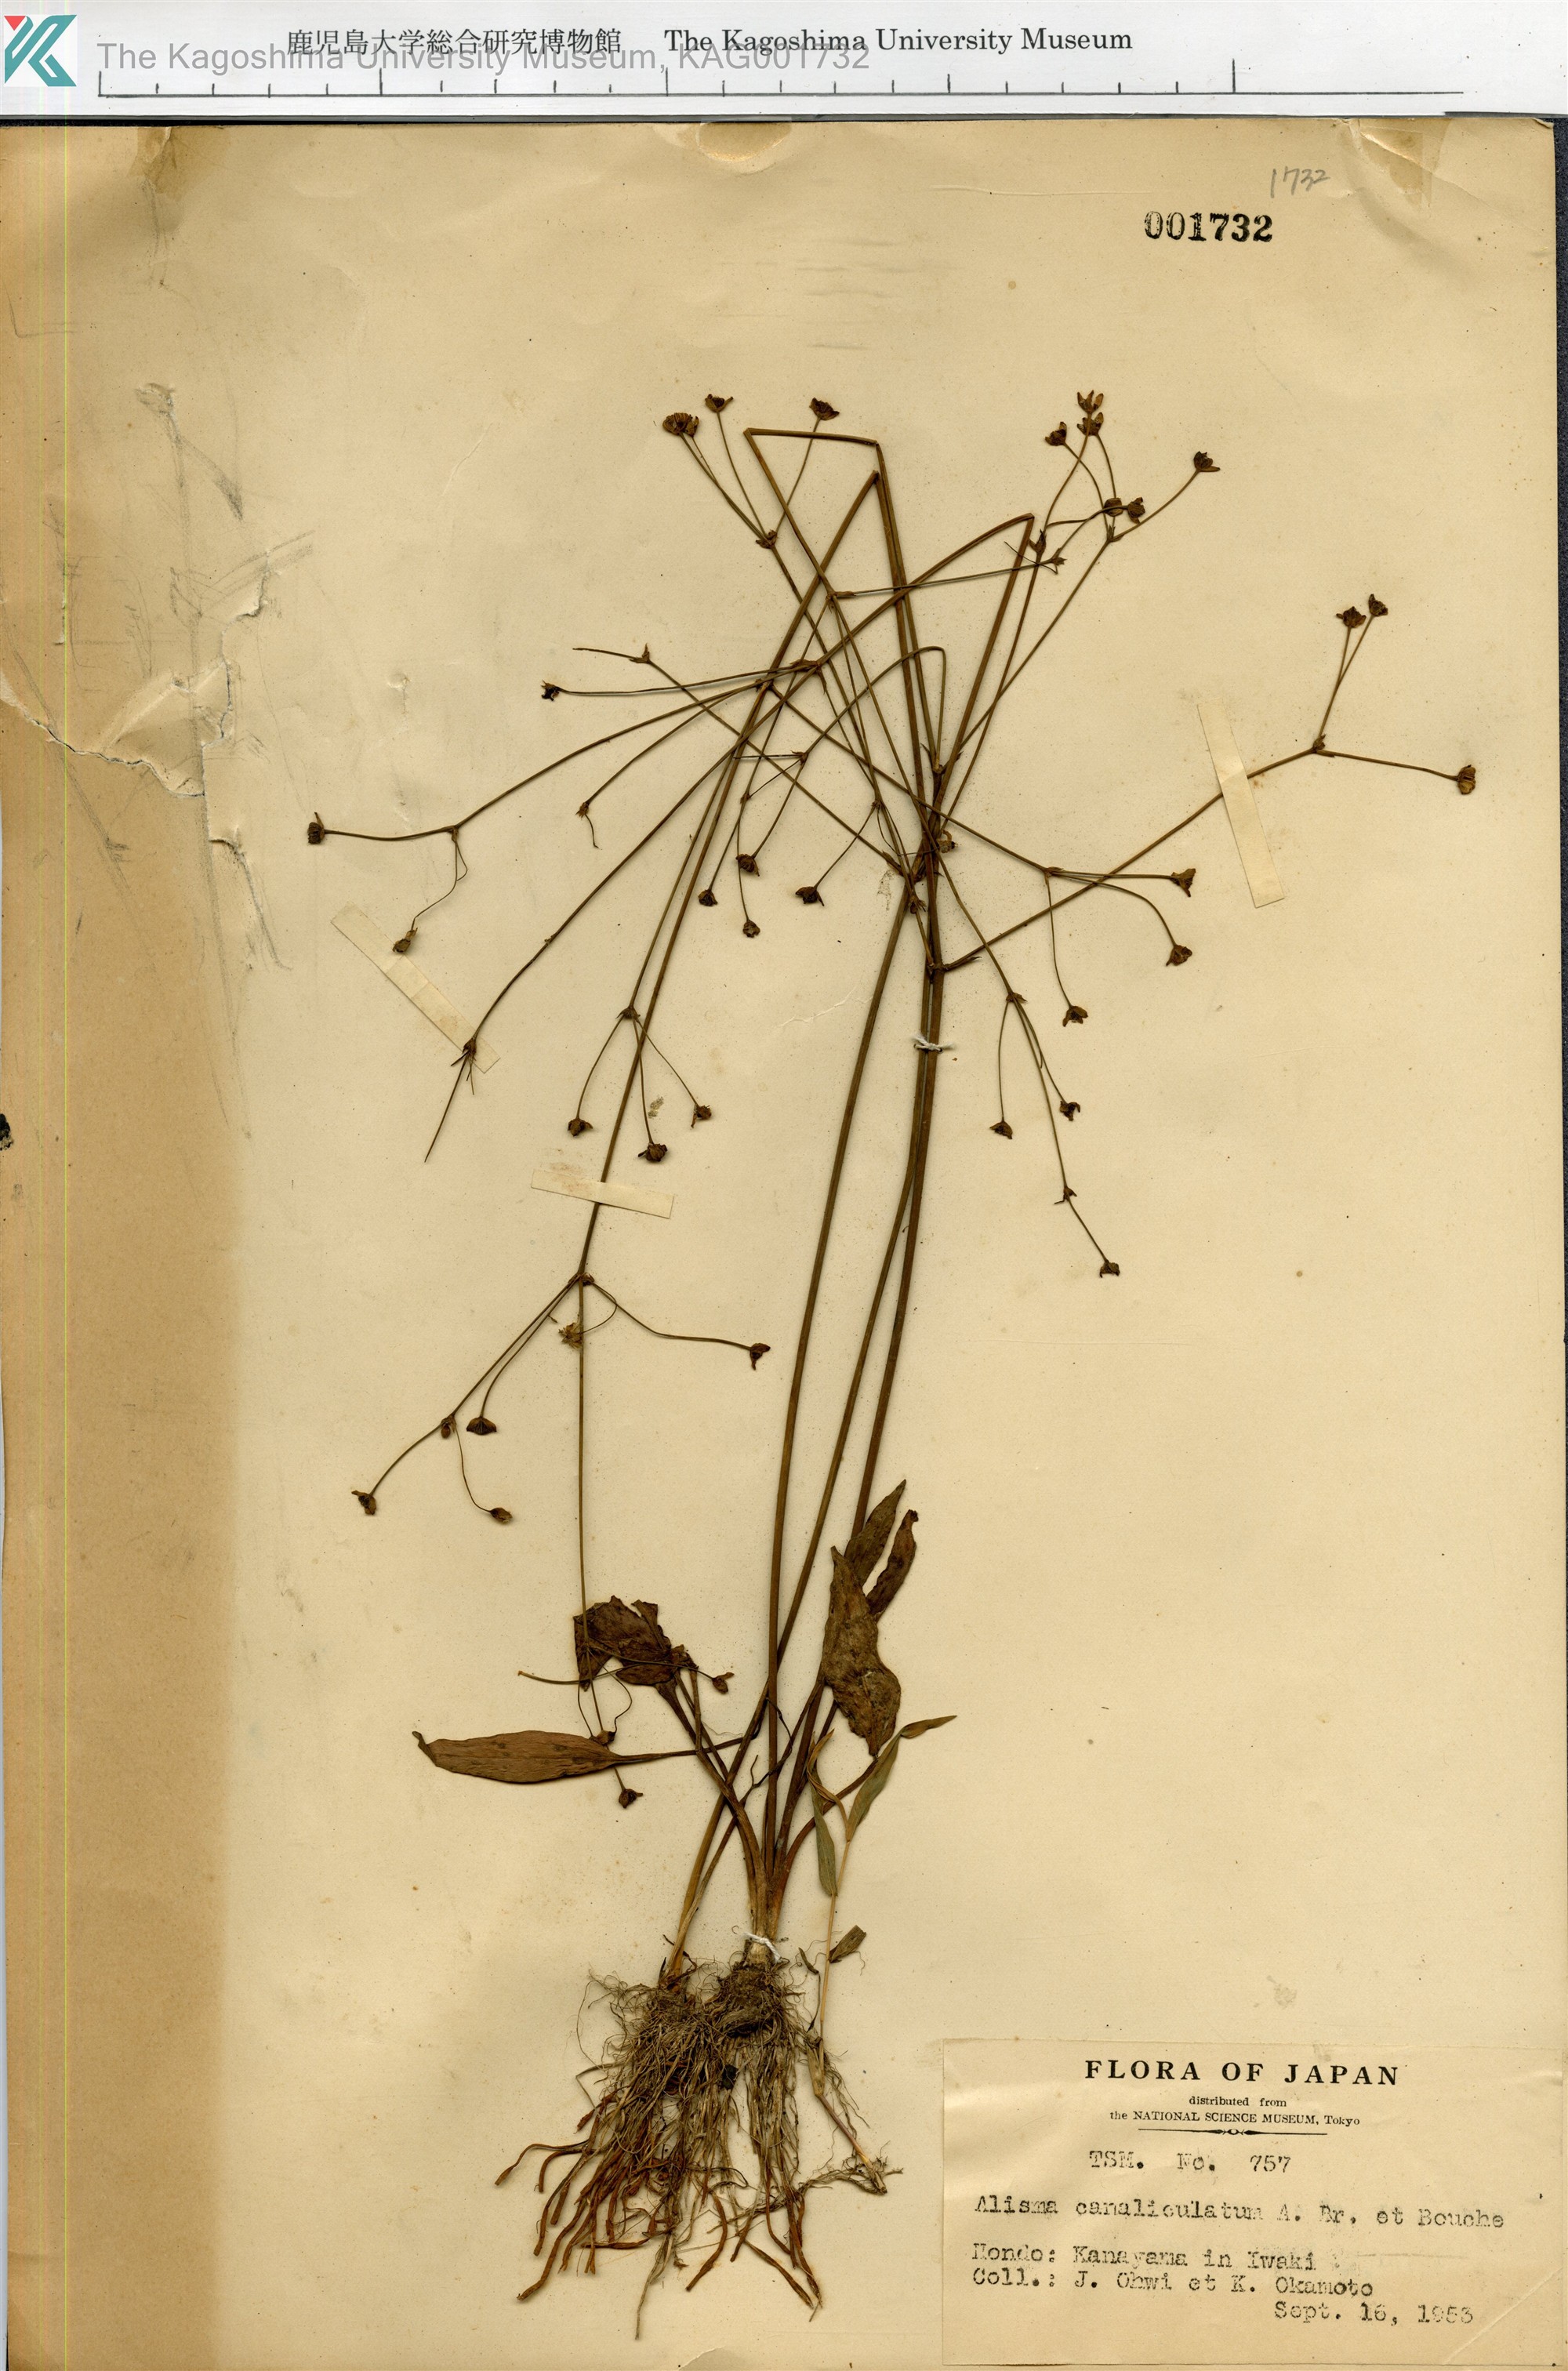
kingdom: Plantae
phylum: Tracheophyta
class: Liliopsida
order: Alismatales
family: Alismataceae
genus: Alisma
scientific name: Alisma canaliculatum
